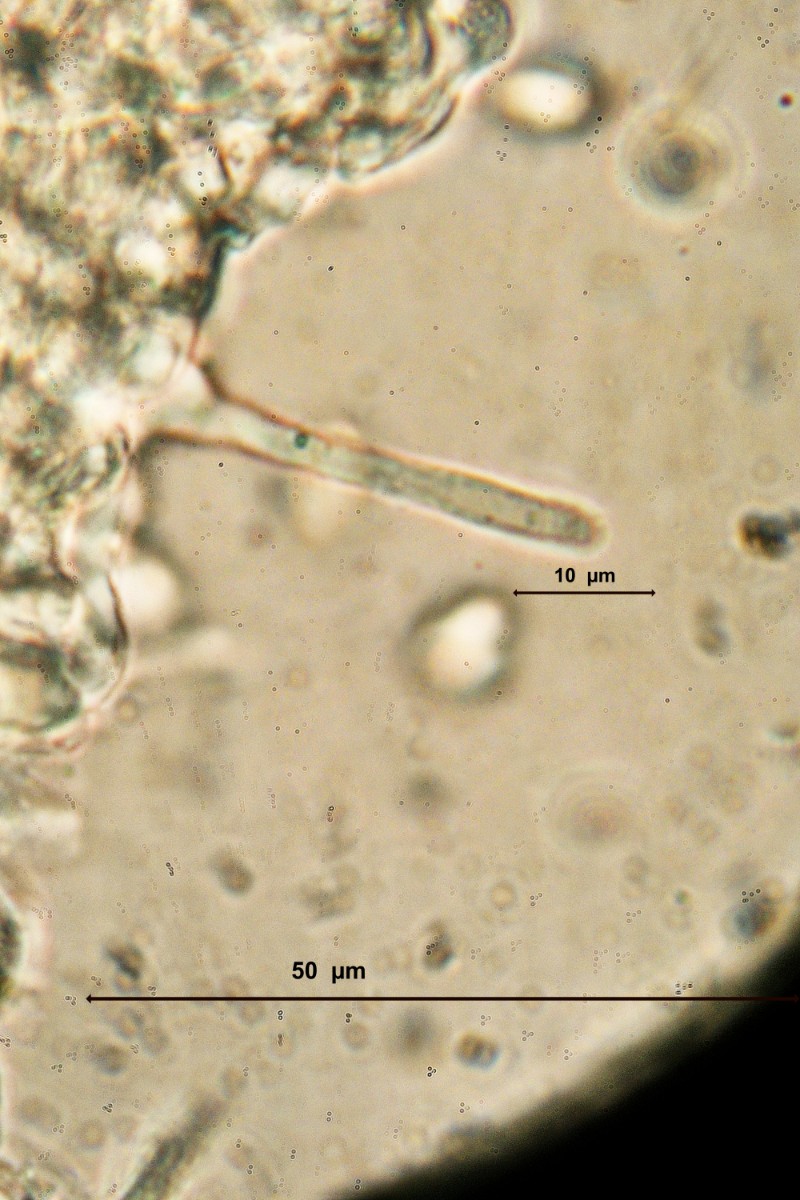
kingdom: Fungi
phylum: Basidiomycota
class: Agaricomycetes
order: Agaricales
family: Tricholomataceae
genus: Melanoleuca
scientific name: Melanoleuca grammopodia
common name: stribestokket munkehat
